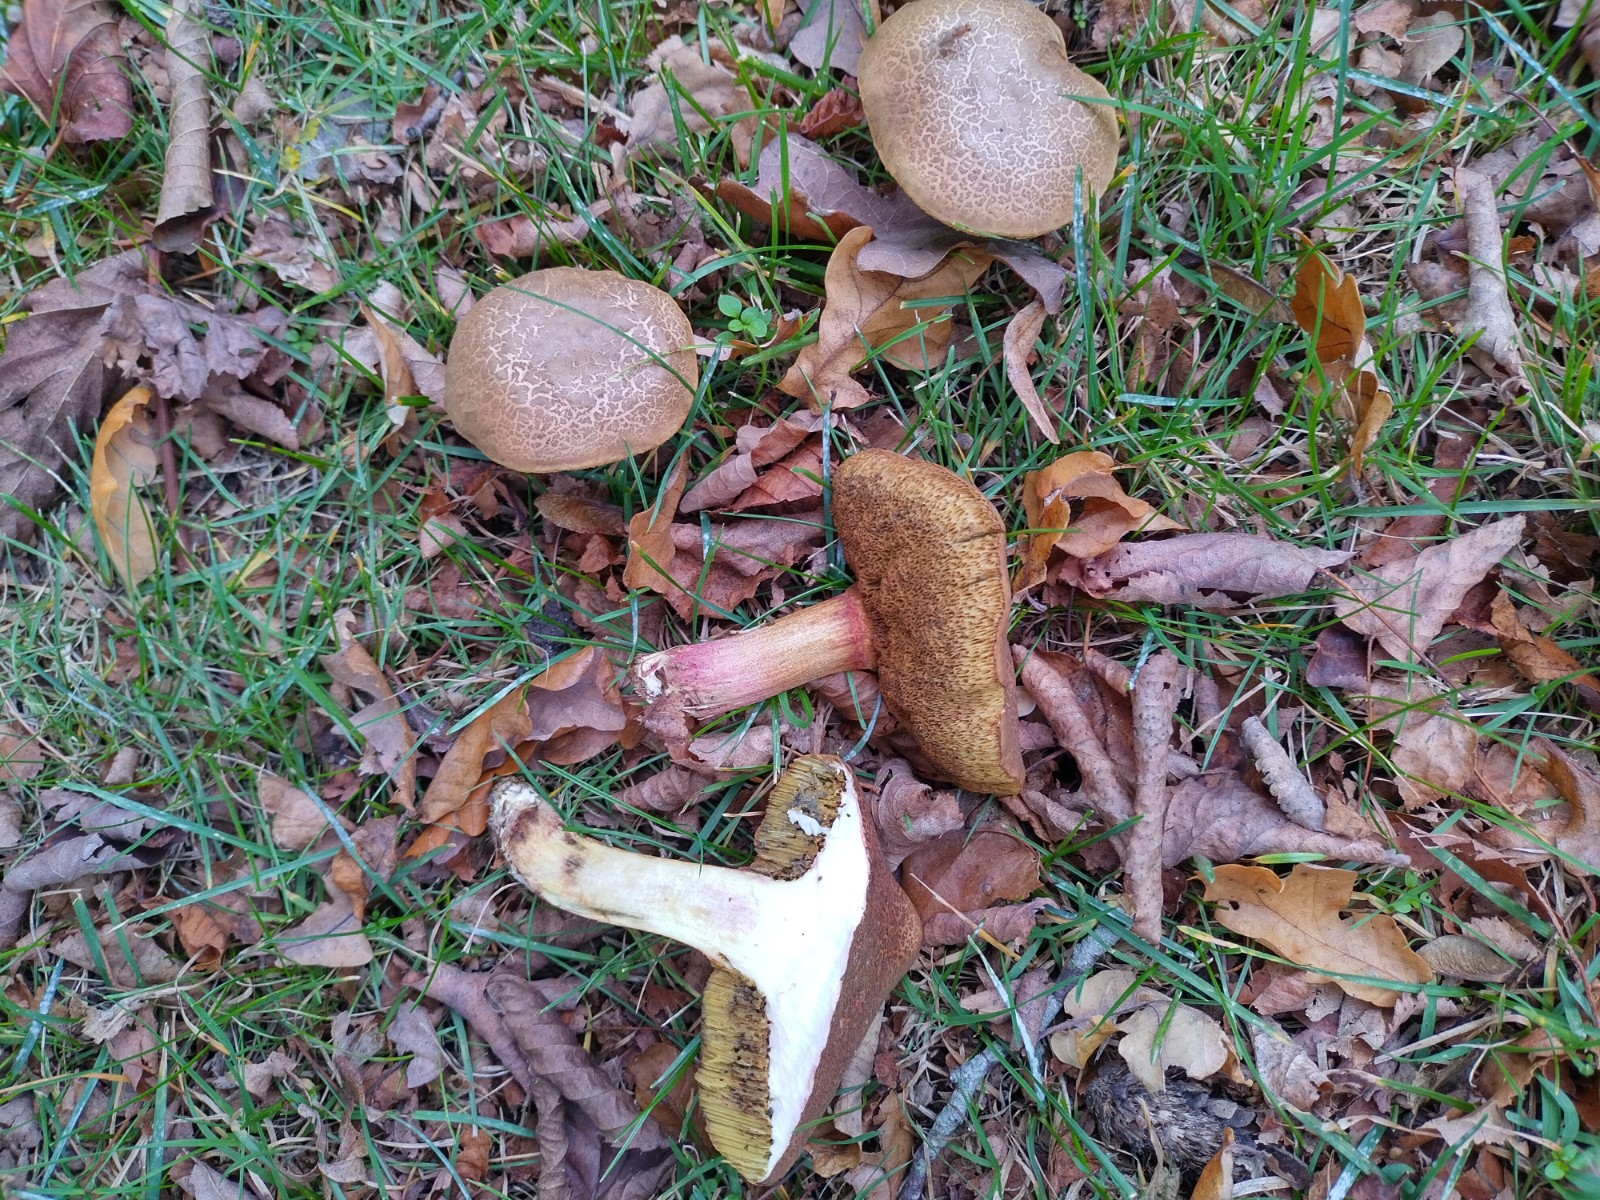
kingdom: Fungi
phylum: Basidiomycota
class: Agaricomycetes
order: Boletales
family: Boletaceae
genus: Xerocomellus
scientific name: Xerocomellus cisalpinus
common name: finsprukken rørhat
